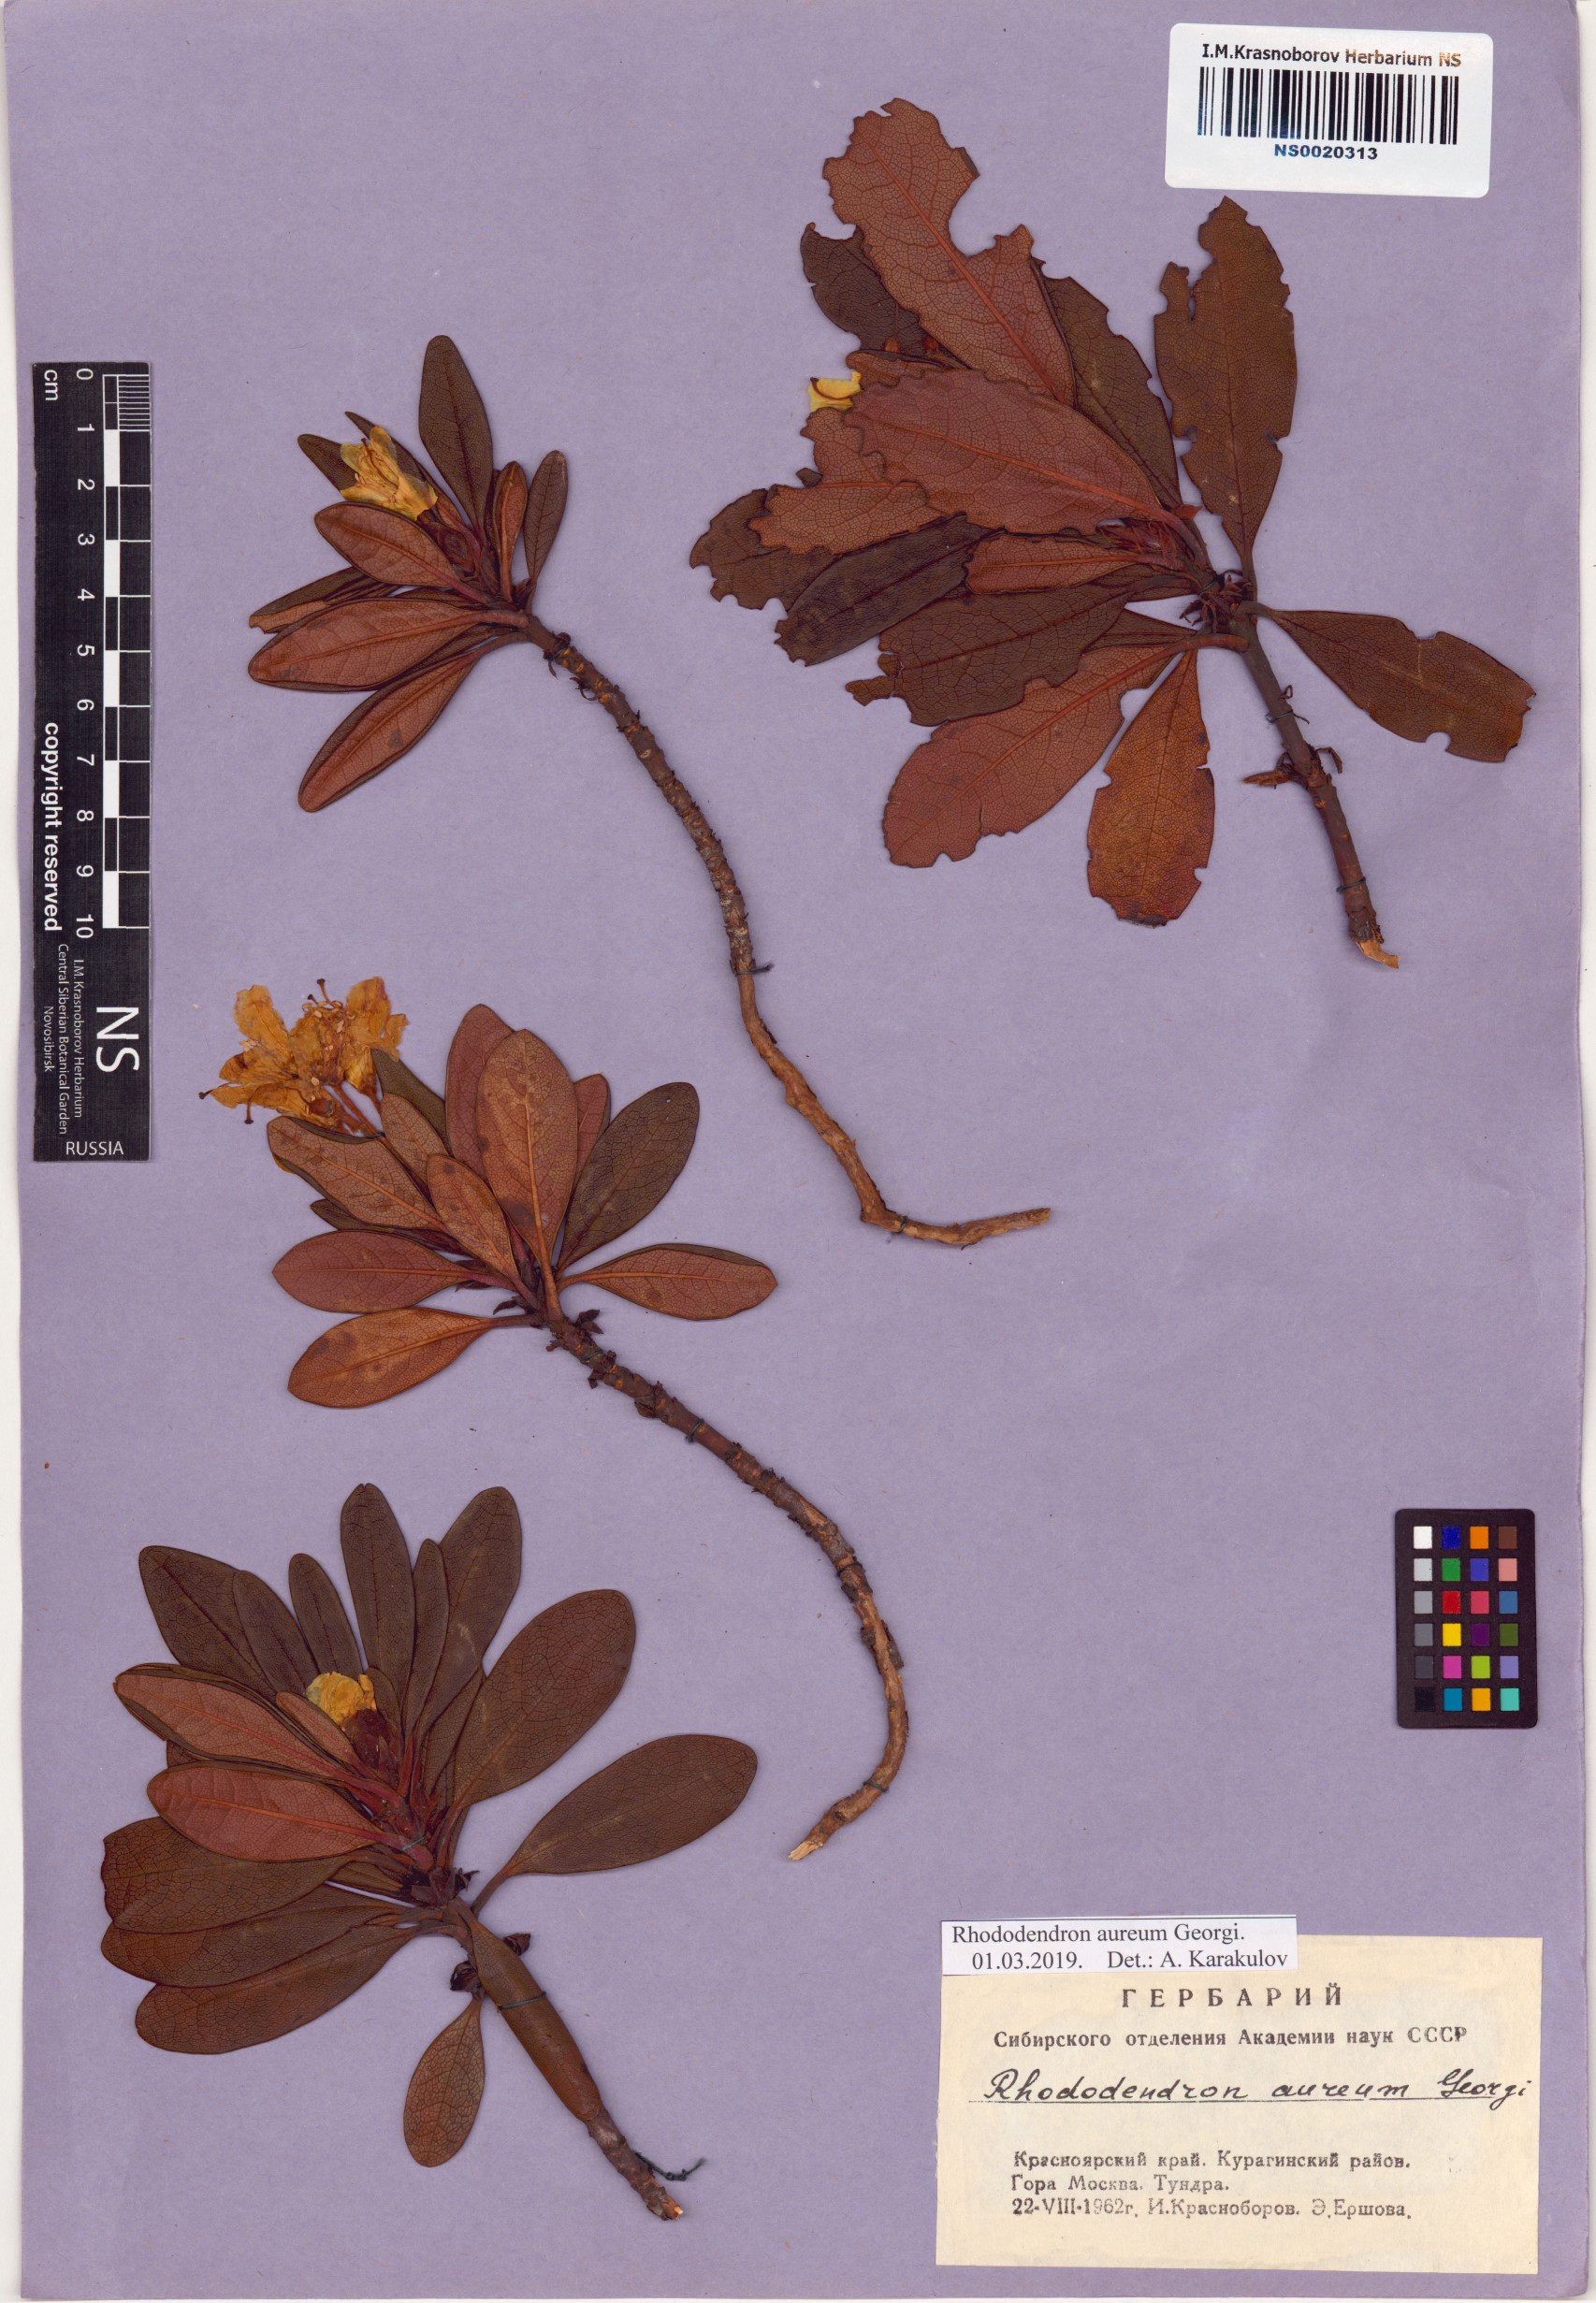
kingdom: Plantae
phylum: Tracheophyta
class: Magnoliopsida
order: Ericales
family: Ericaceae
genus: Rhododendron
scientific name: Rhododendron aureum
